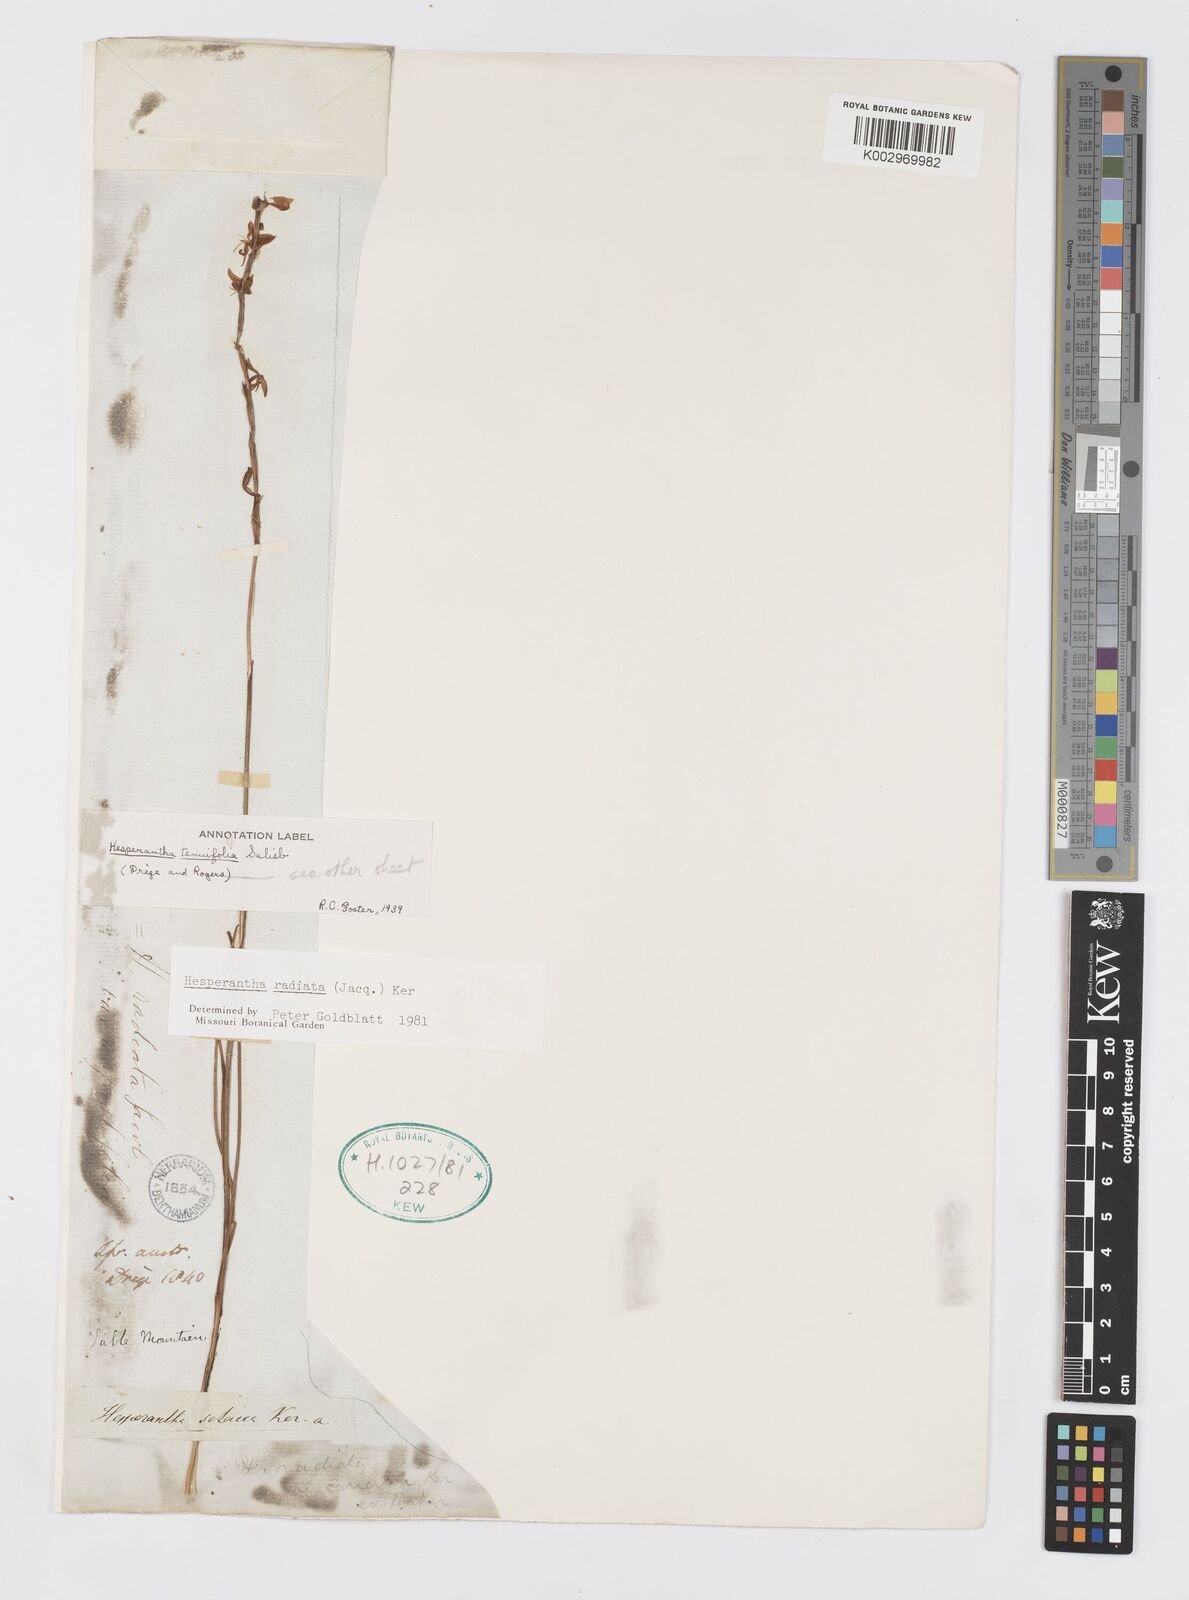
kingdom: Plantae
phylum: Tracheophyta
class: Liliopsida
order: Asparagales
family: Iridaceae
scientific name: Iridaceae
